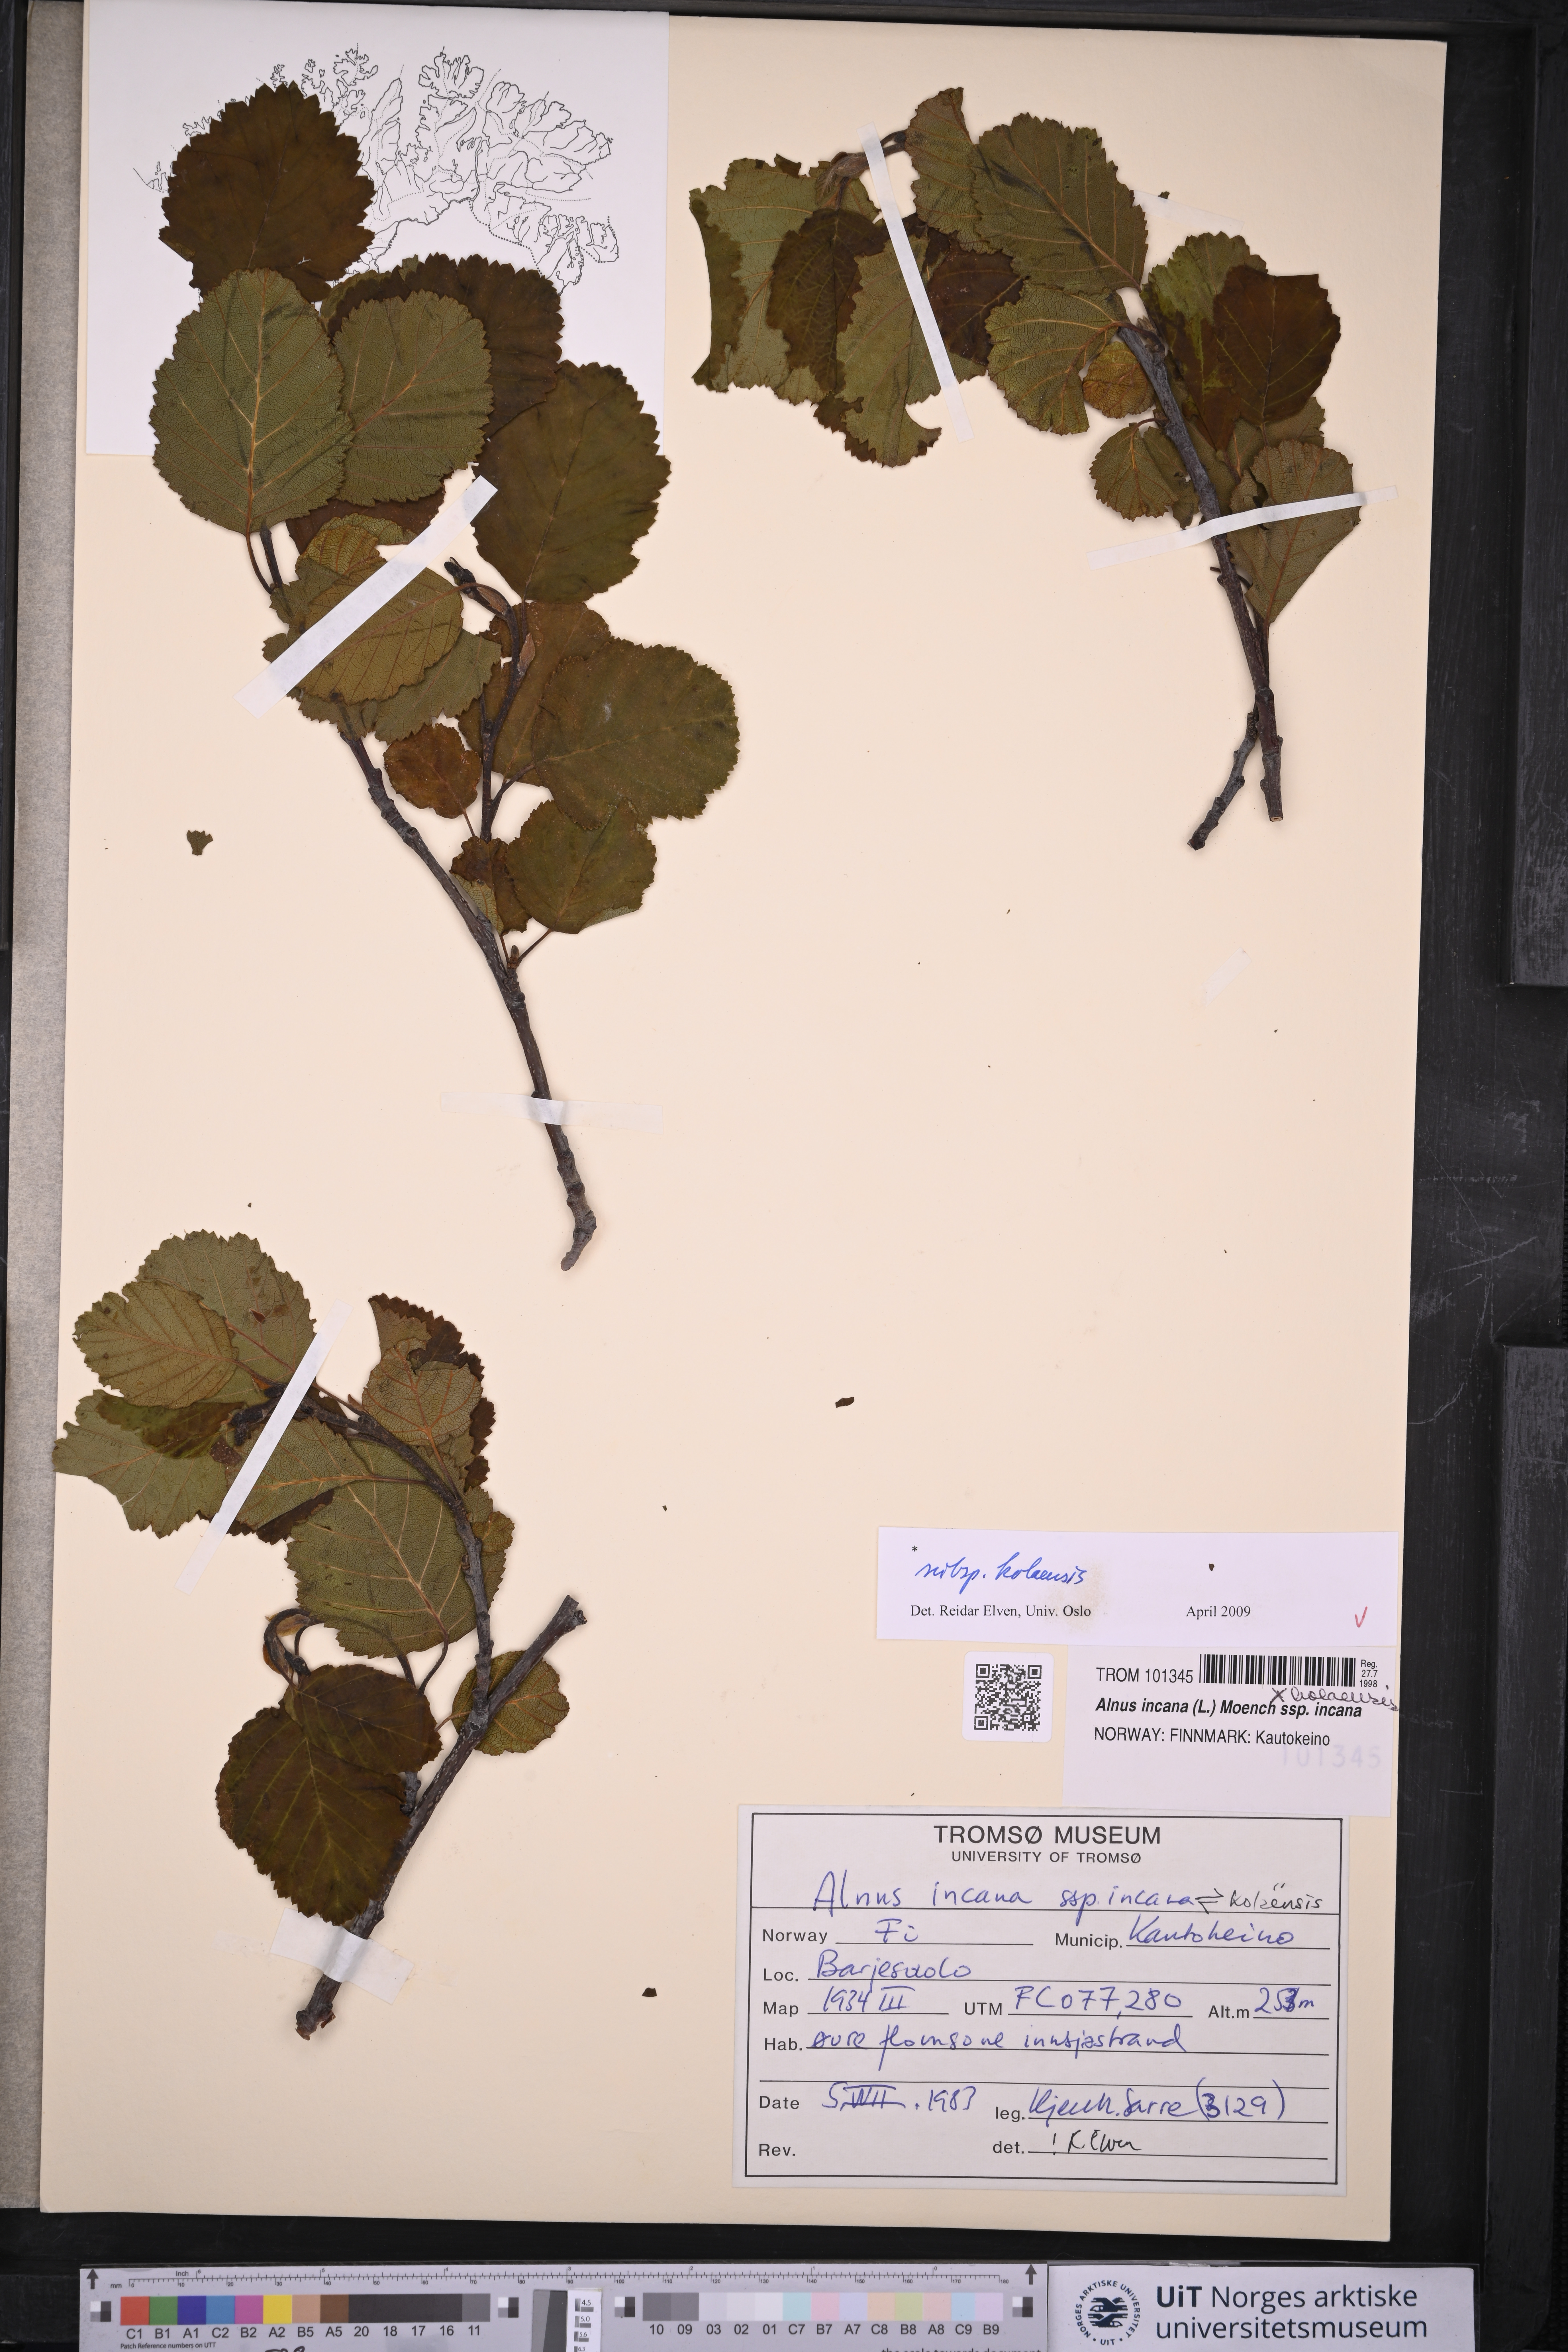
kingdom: Plantae
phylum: Tracheophyta
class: Magnoliopsida
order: Fagales
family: Betulaceae
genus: Alnus
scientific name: Alnus incana
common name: Grey alder
